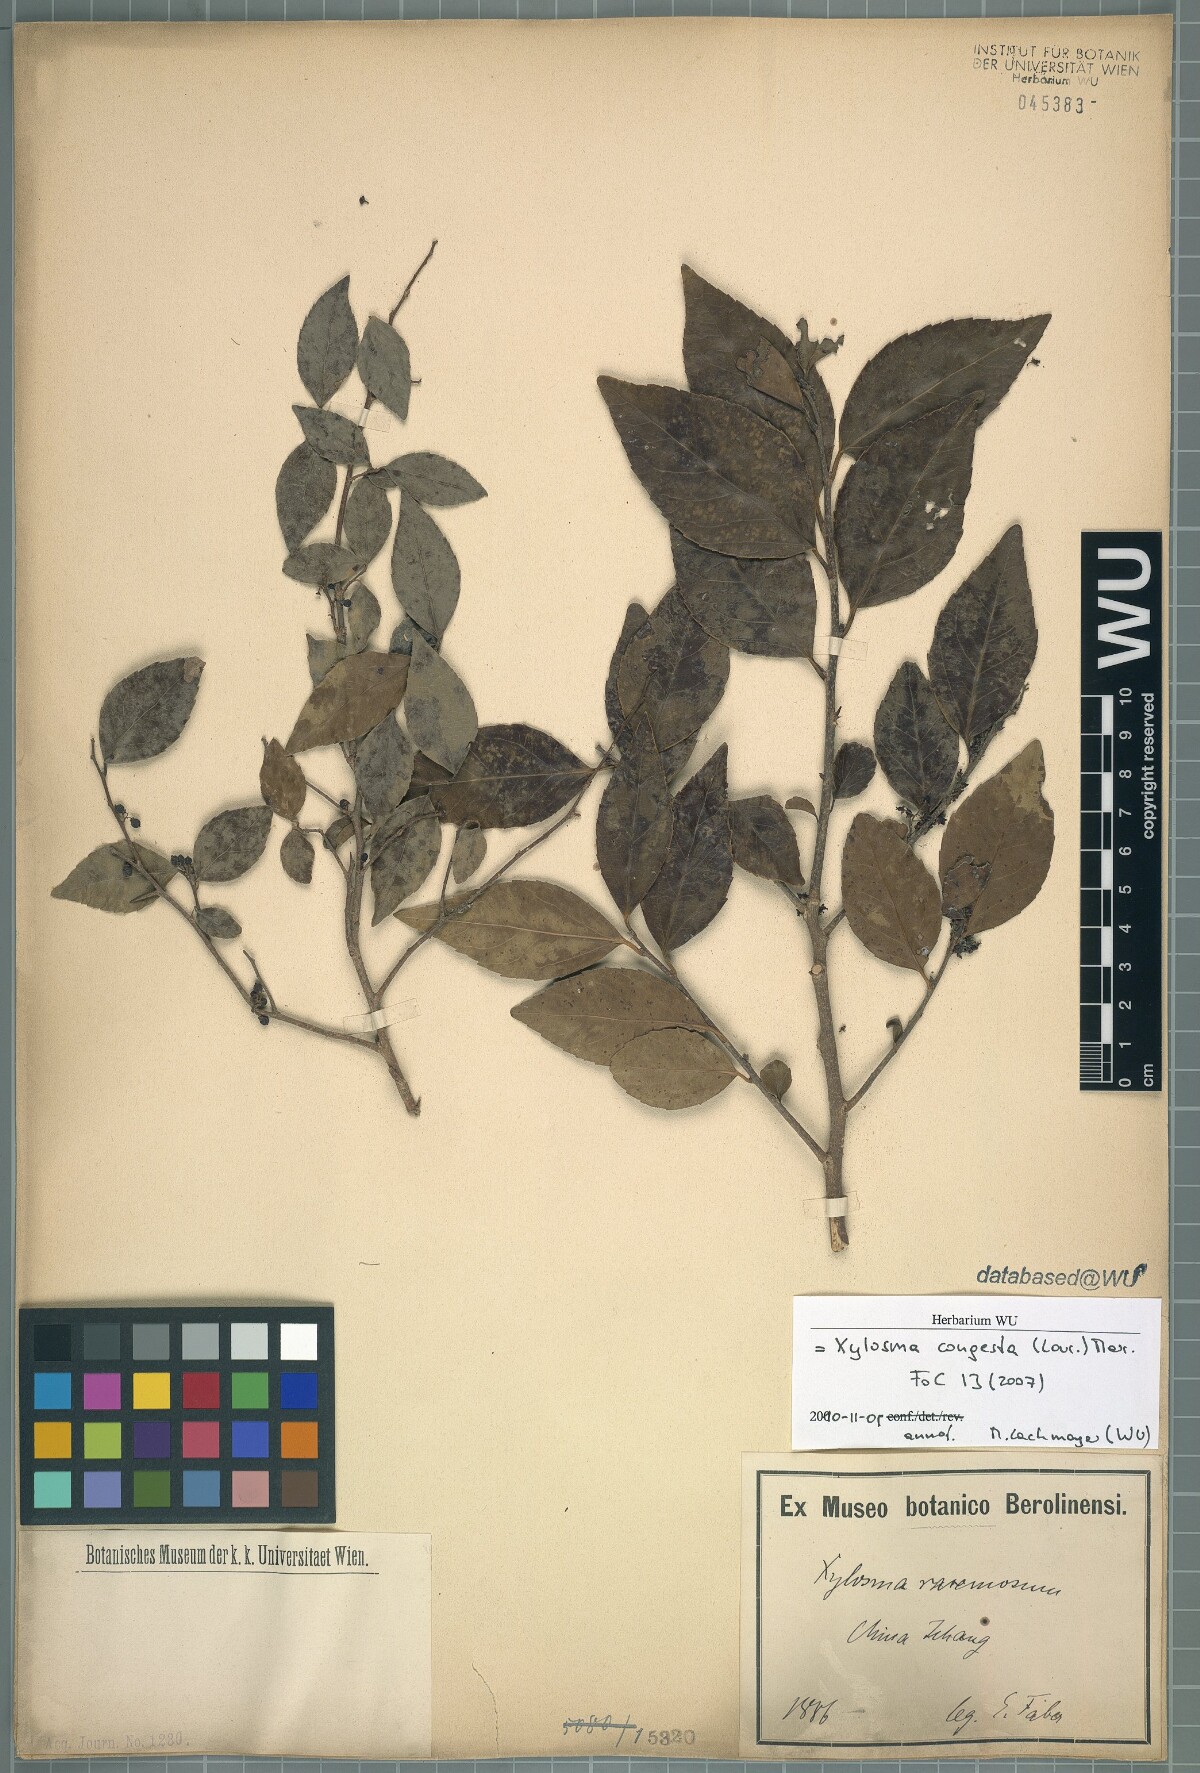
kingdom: Plantae
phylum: Tracheophyta
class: Magnoliopsida
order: Malpighiales
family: Salicaceae
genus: Xylosma
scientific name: Xylosma racemosum
